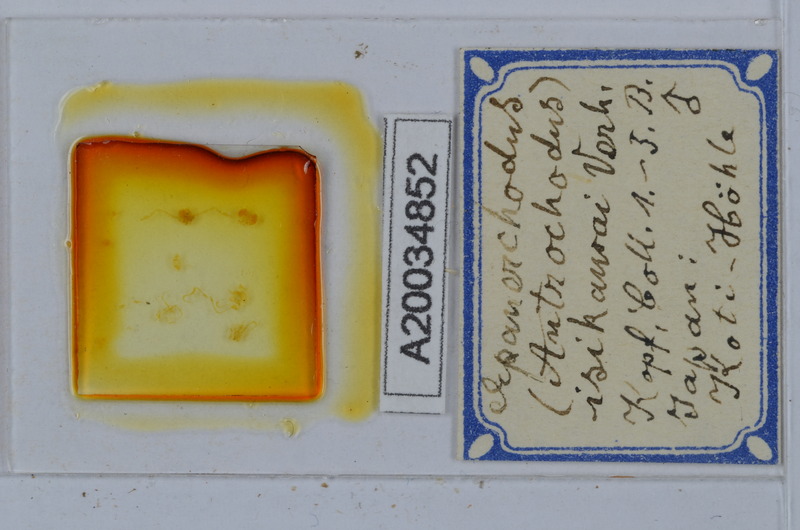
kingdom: Animalia
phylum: Arthropoda
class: Diplopoda
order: Polydesmida
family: Polydesmidae
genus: Antrochodus
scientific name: Antrochodus isikawai
